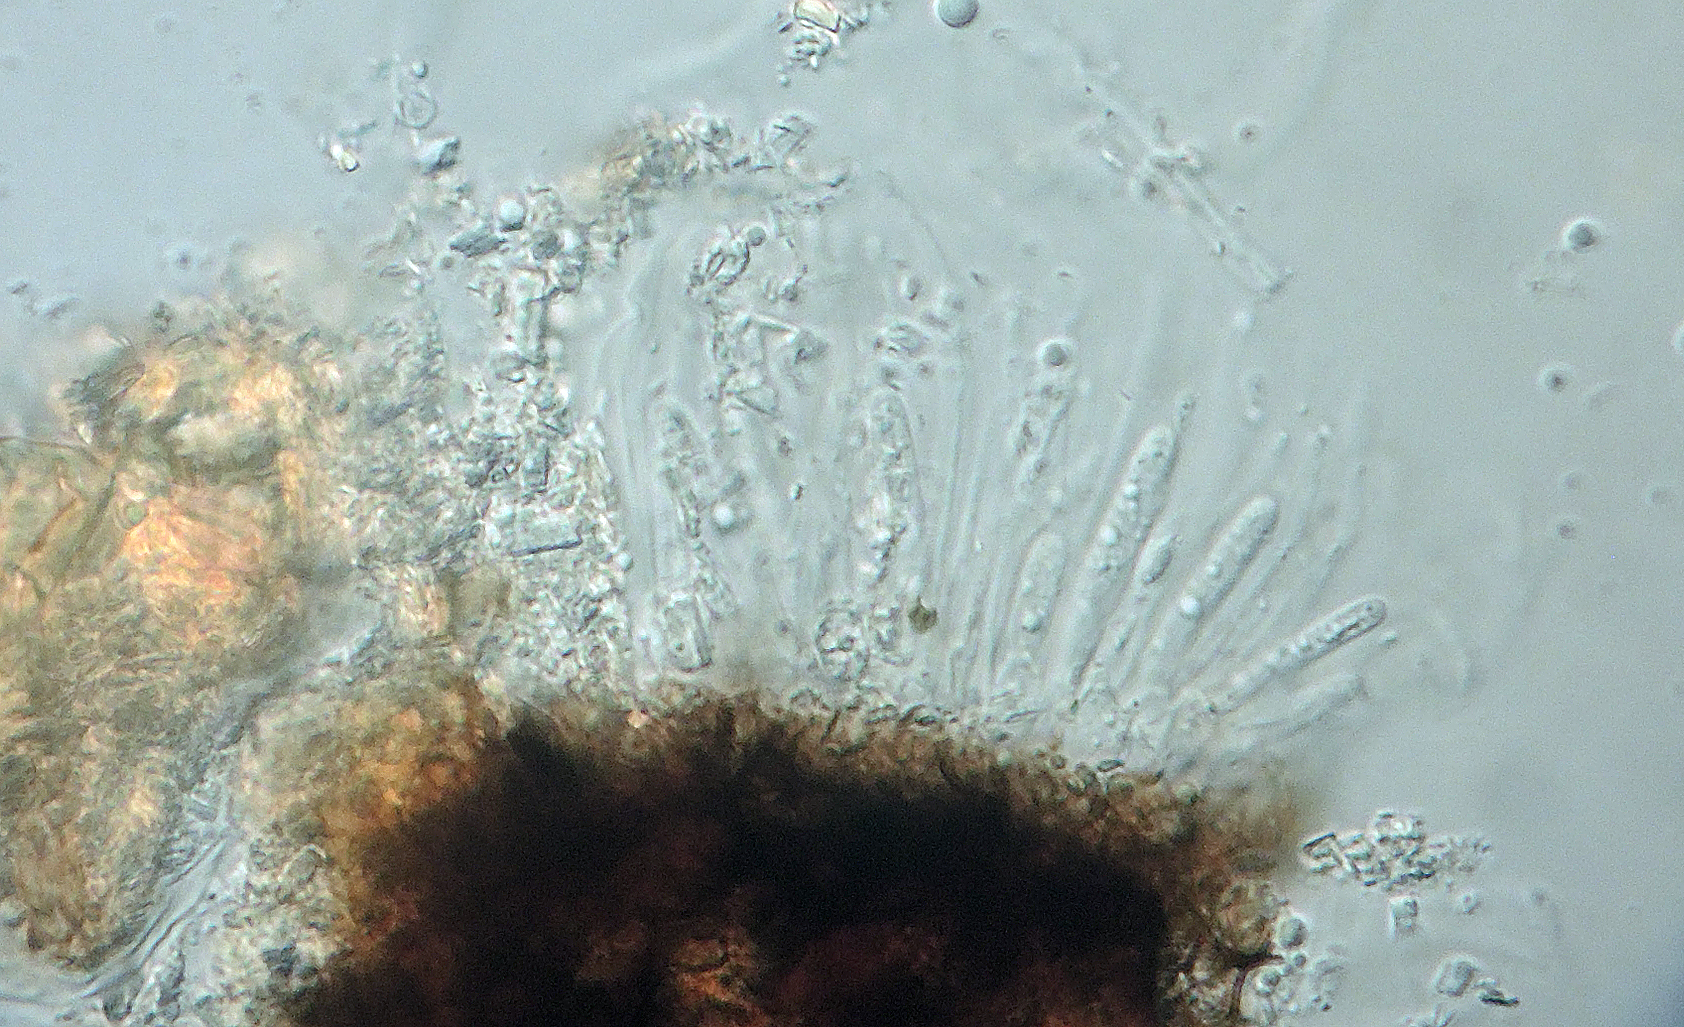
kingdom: Fungi
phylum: Ascomycota
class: Leotiomycetes
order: Helotiales
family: Dermateaceae
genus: Coleophoma
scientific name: Coleophoma rhododendri
